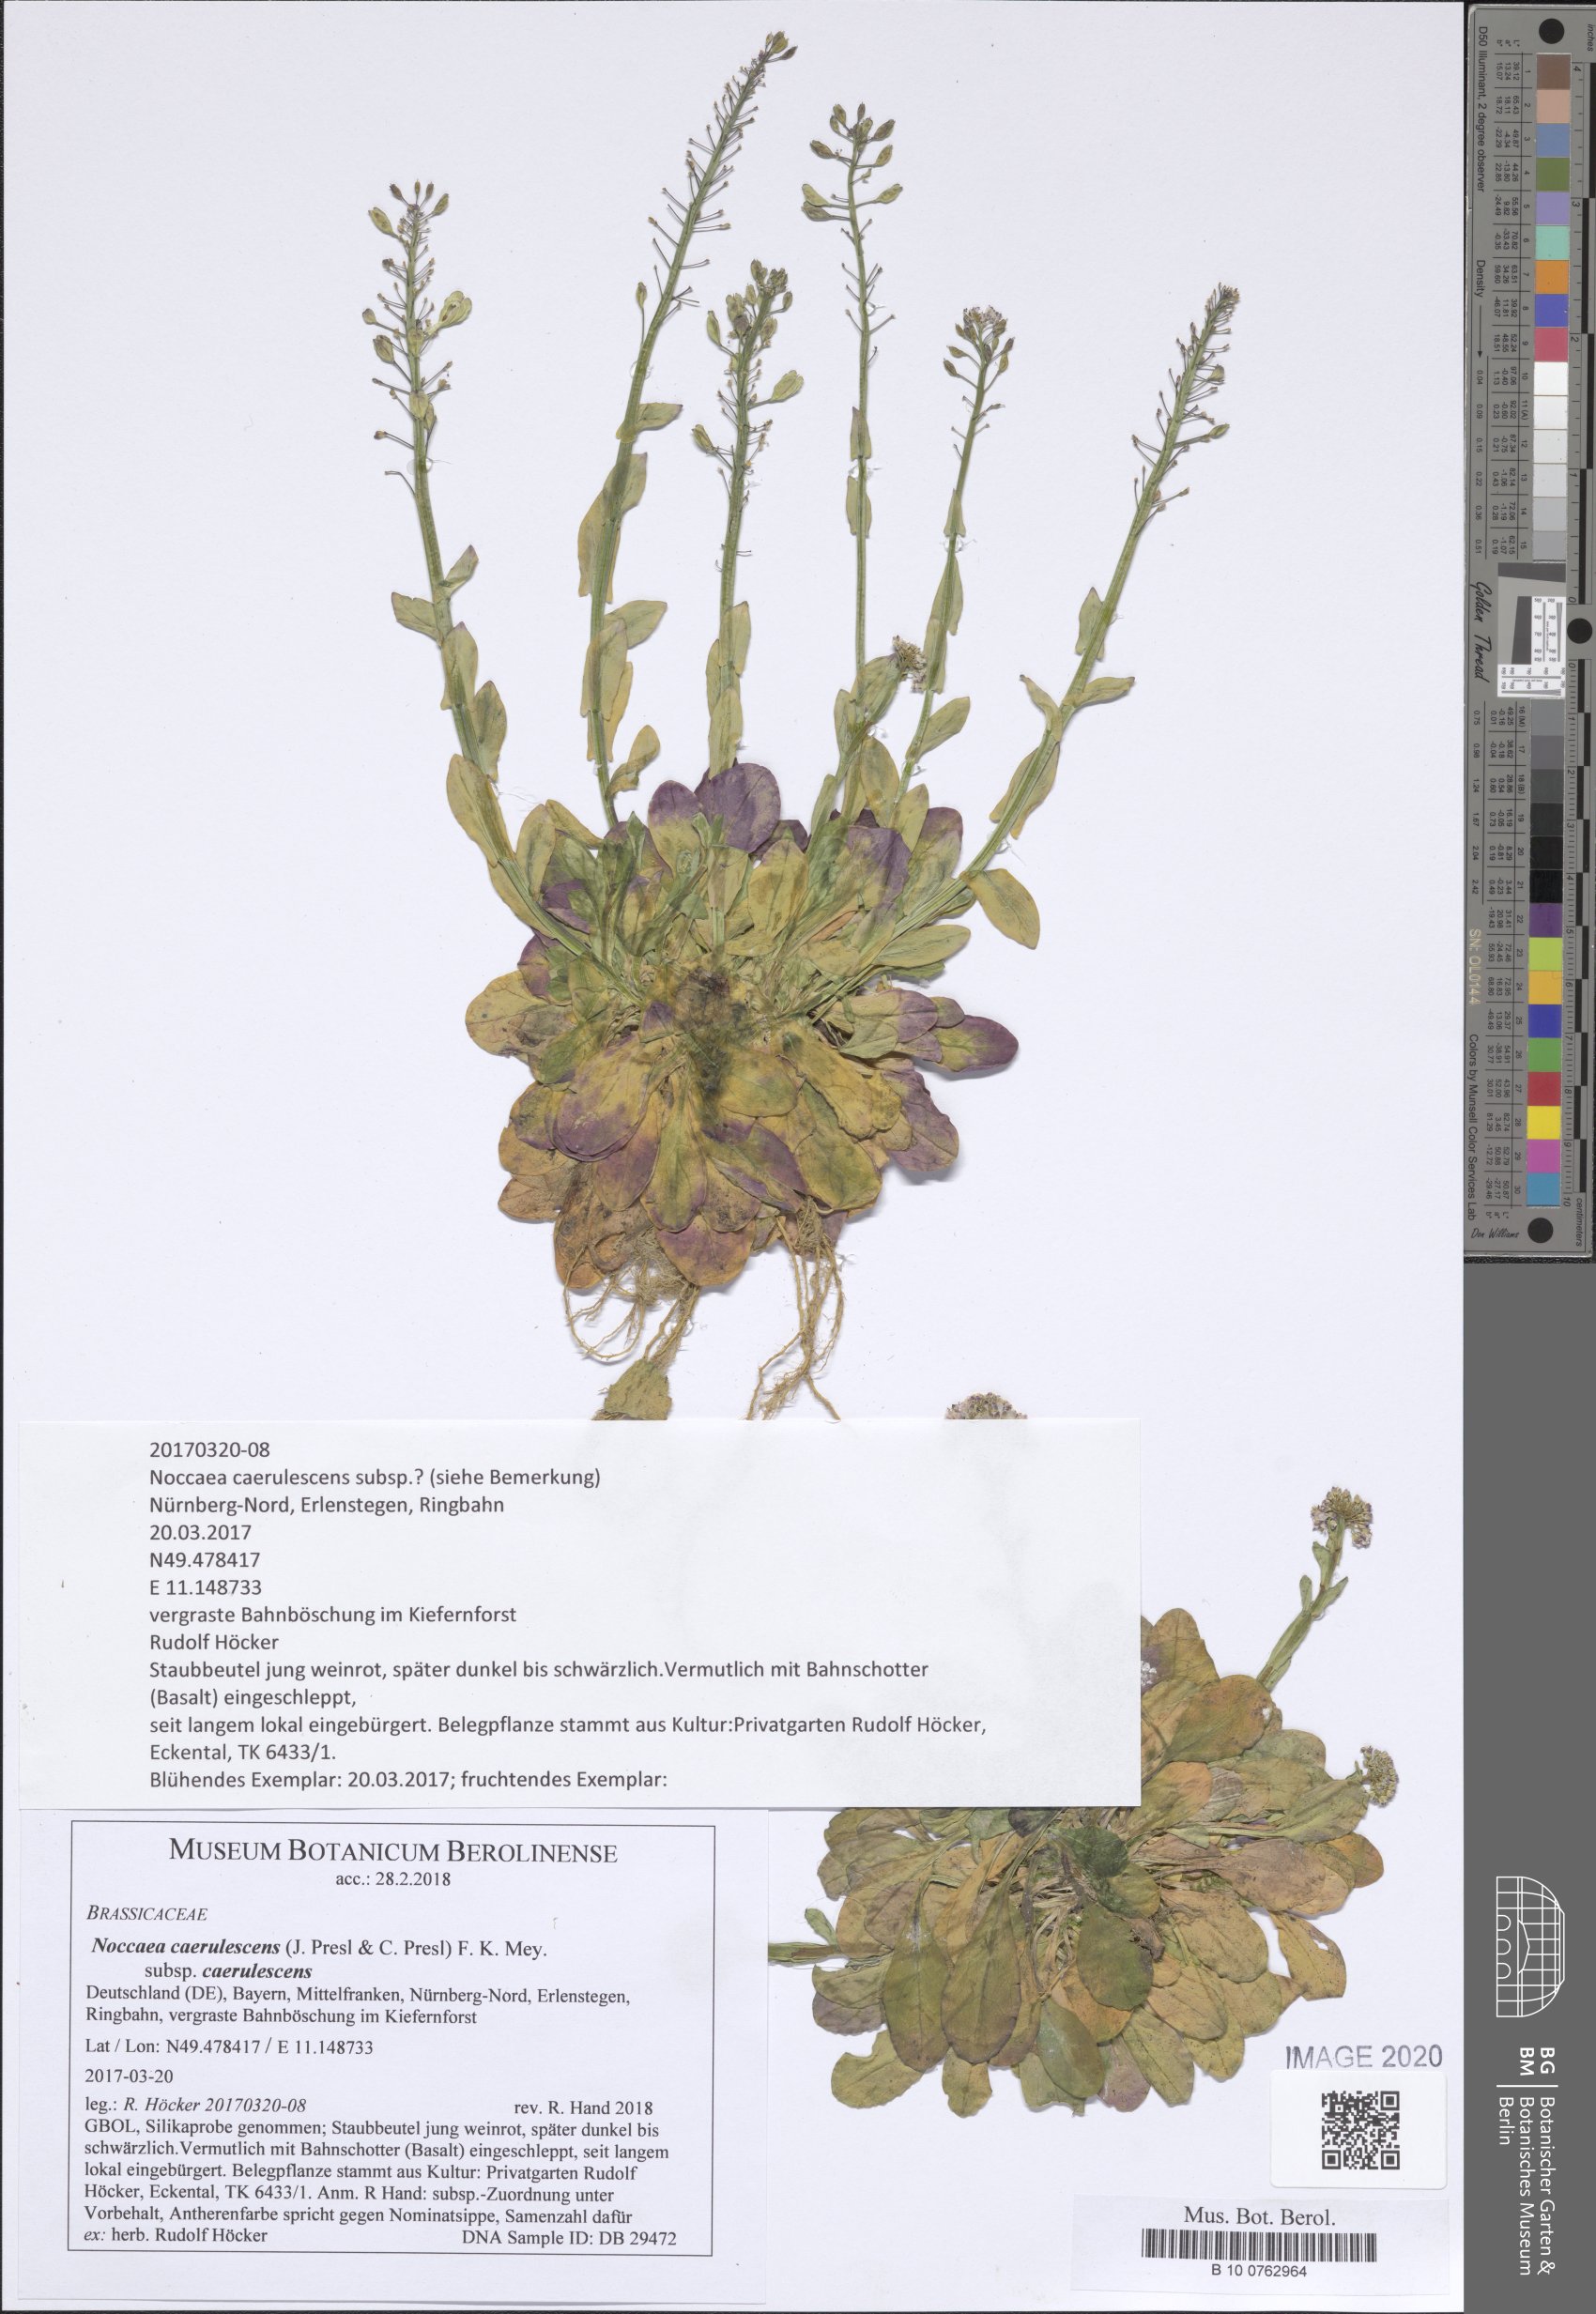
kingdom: Plantae
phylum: Tracheophyta
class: Magnoliopsida
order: Brassicales
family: Brassicaceae
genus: Noccaea
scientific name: Noccaea caerulescens
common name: Alpine pennycress
